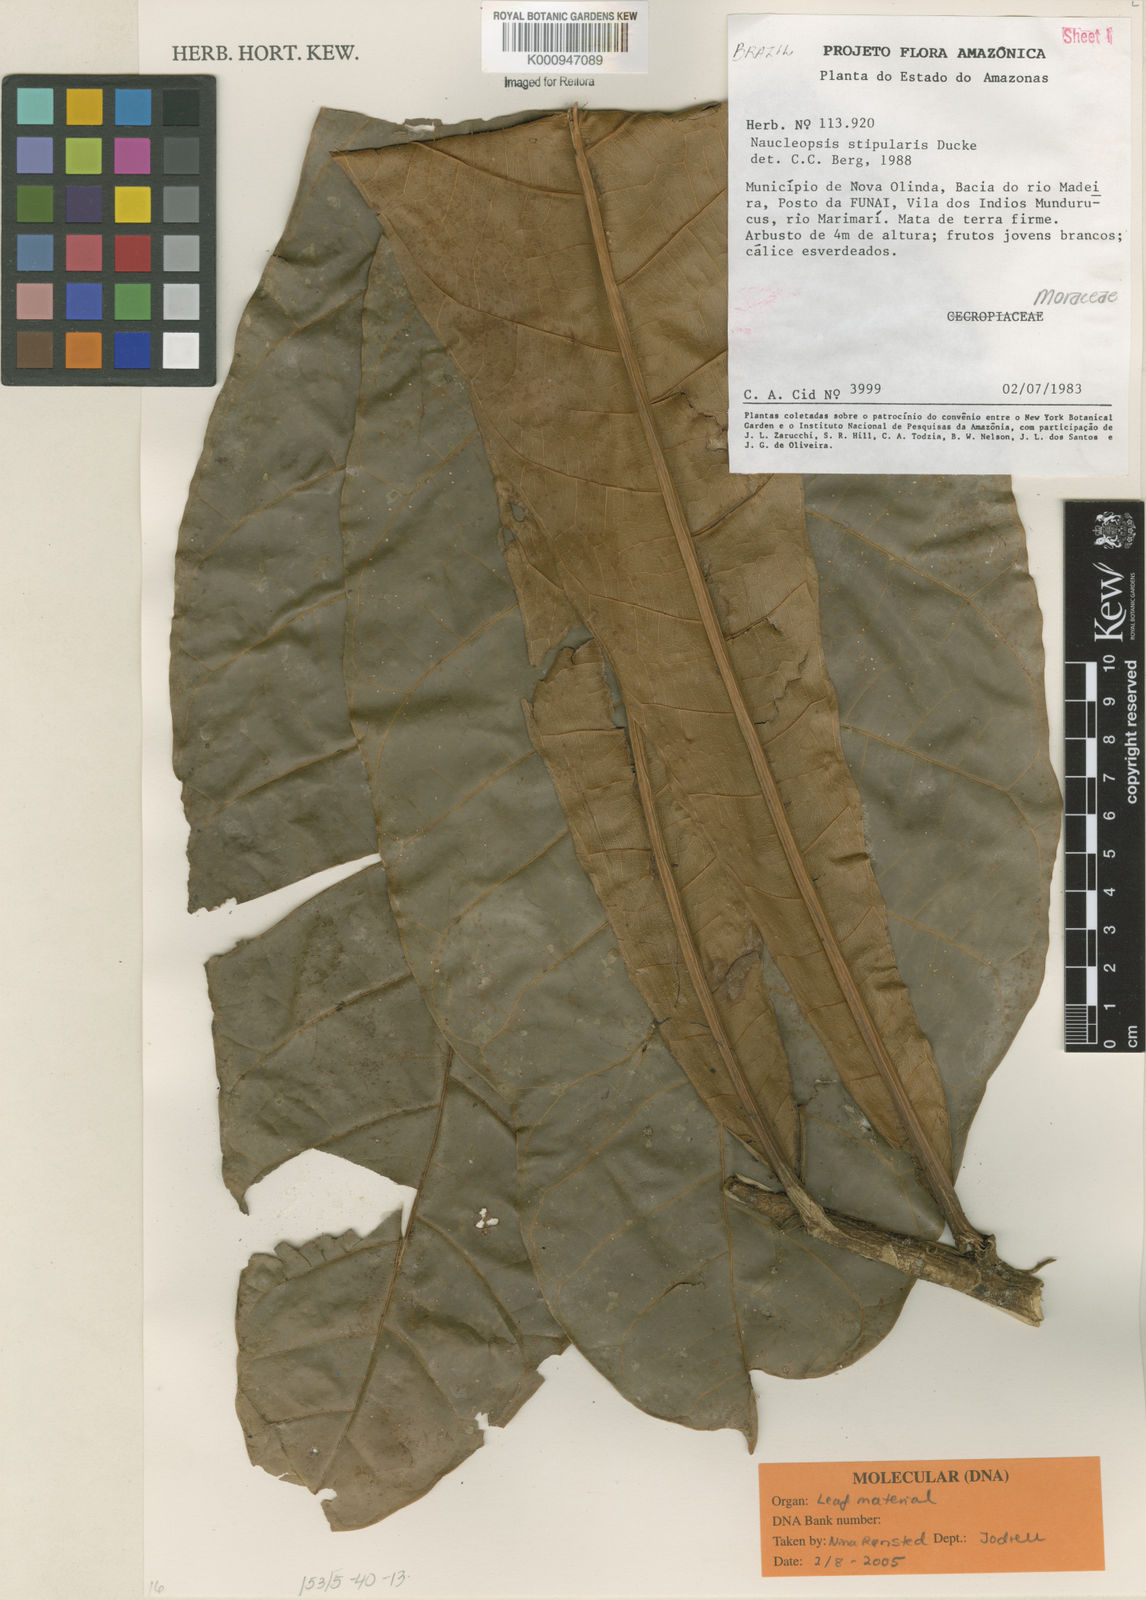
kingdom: Plantae
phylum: Tracheophyta
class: Magnoliopsida
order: Rosales
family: Moraceae
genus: Naucleopsis
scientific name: Naucleopsis stipularis
